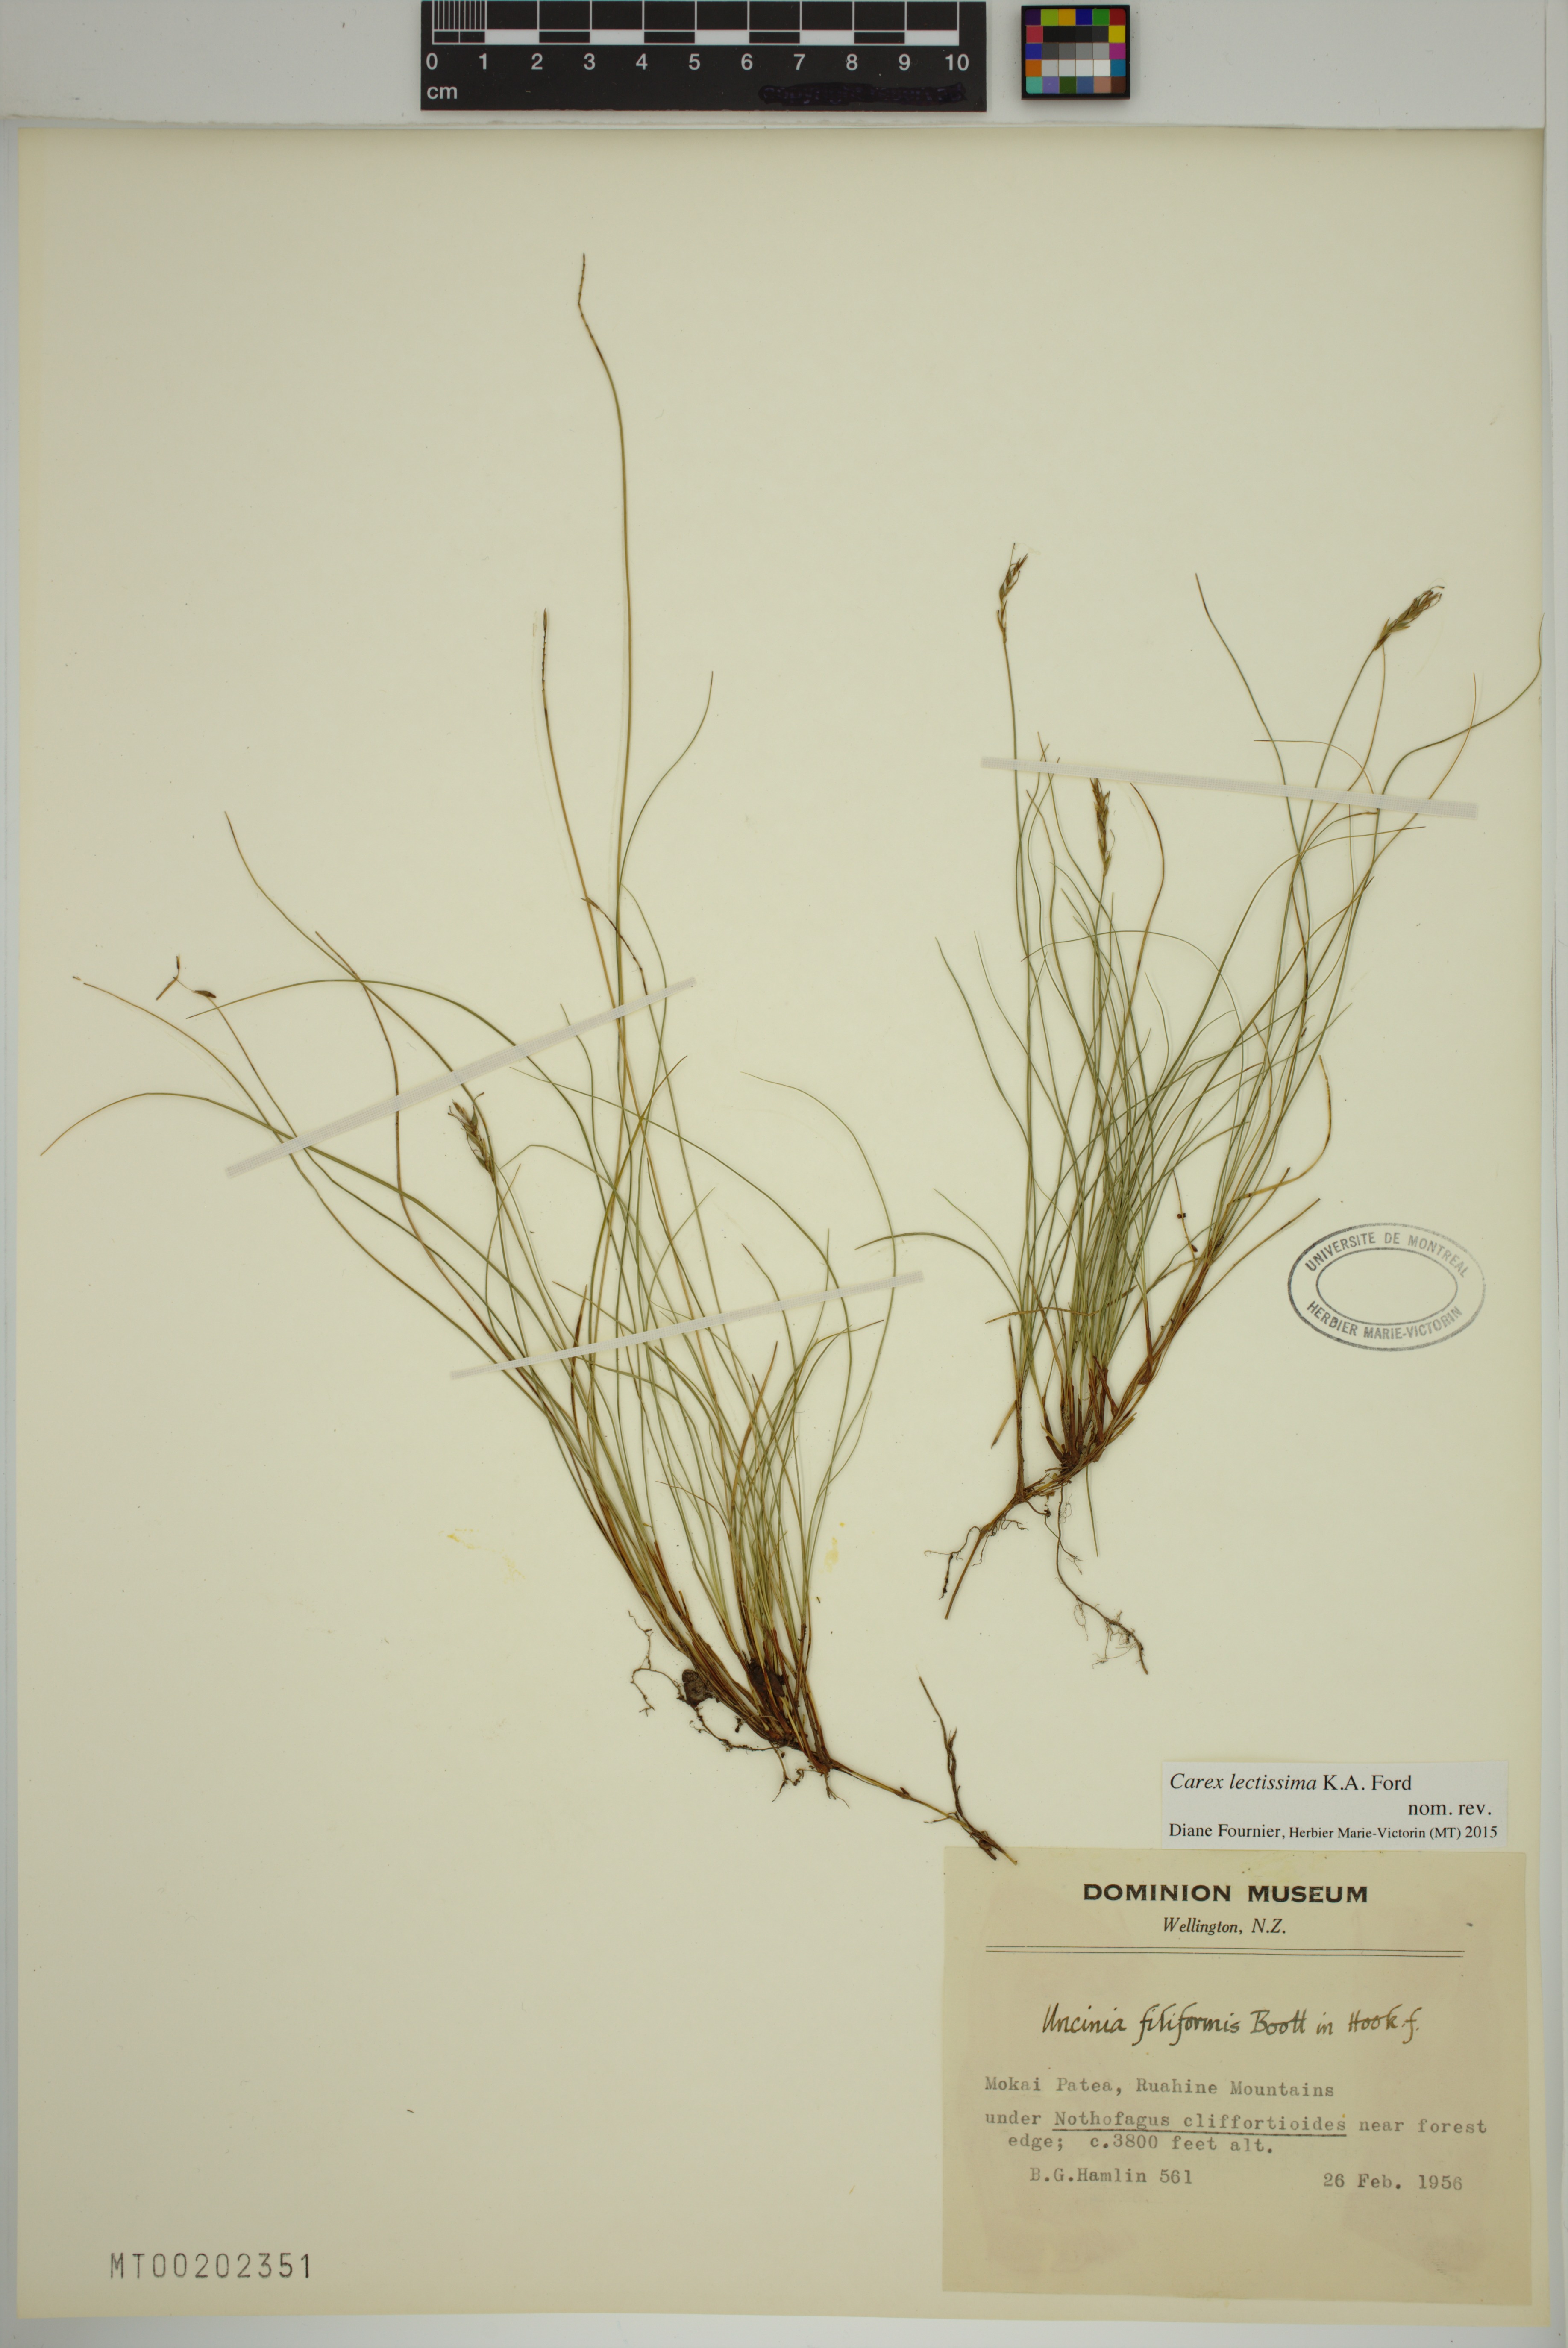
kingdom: Plantae
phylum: Tracheophyta
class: Liliopsida
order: Poales
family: Cyperaceae
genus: Carex
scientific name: Carex lectissima
